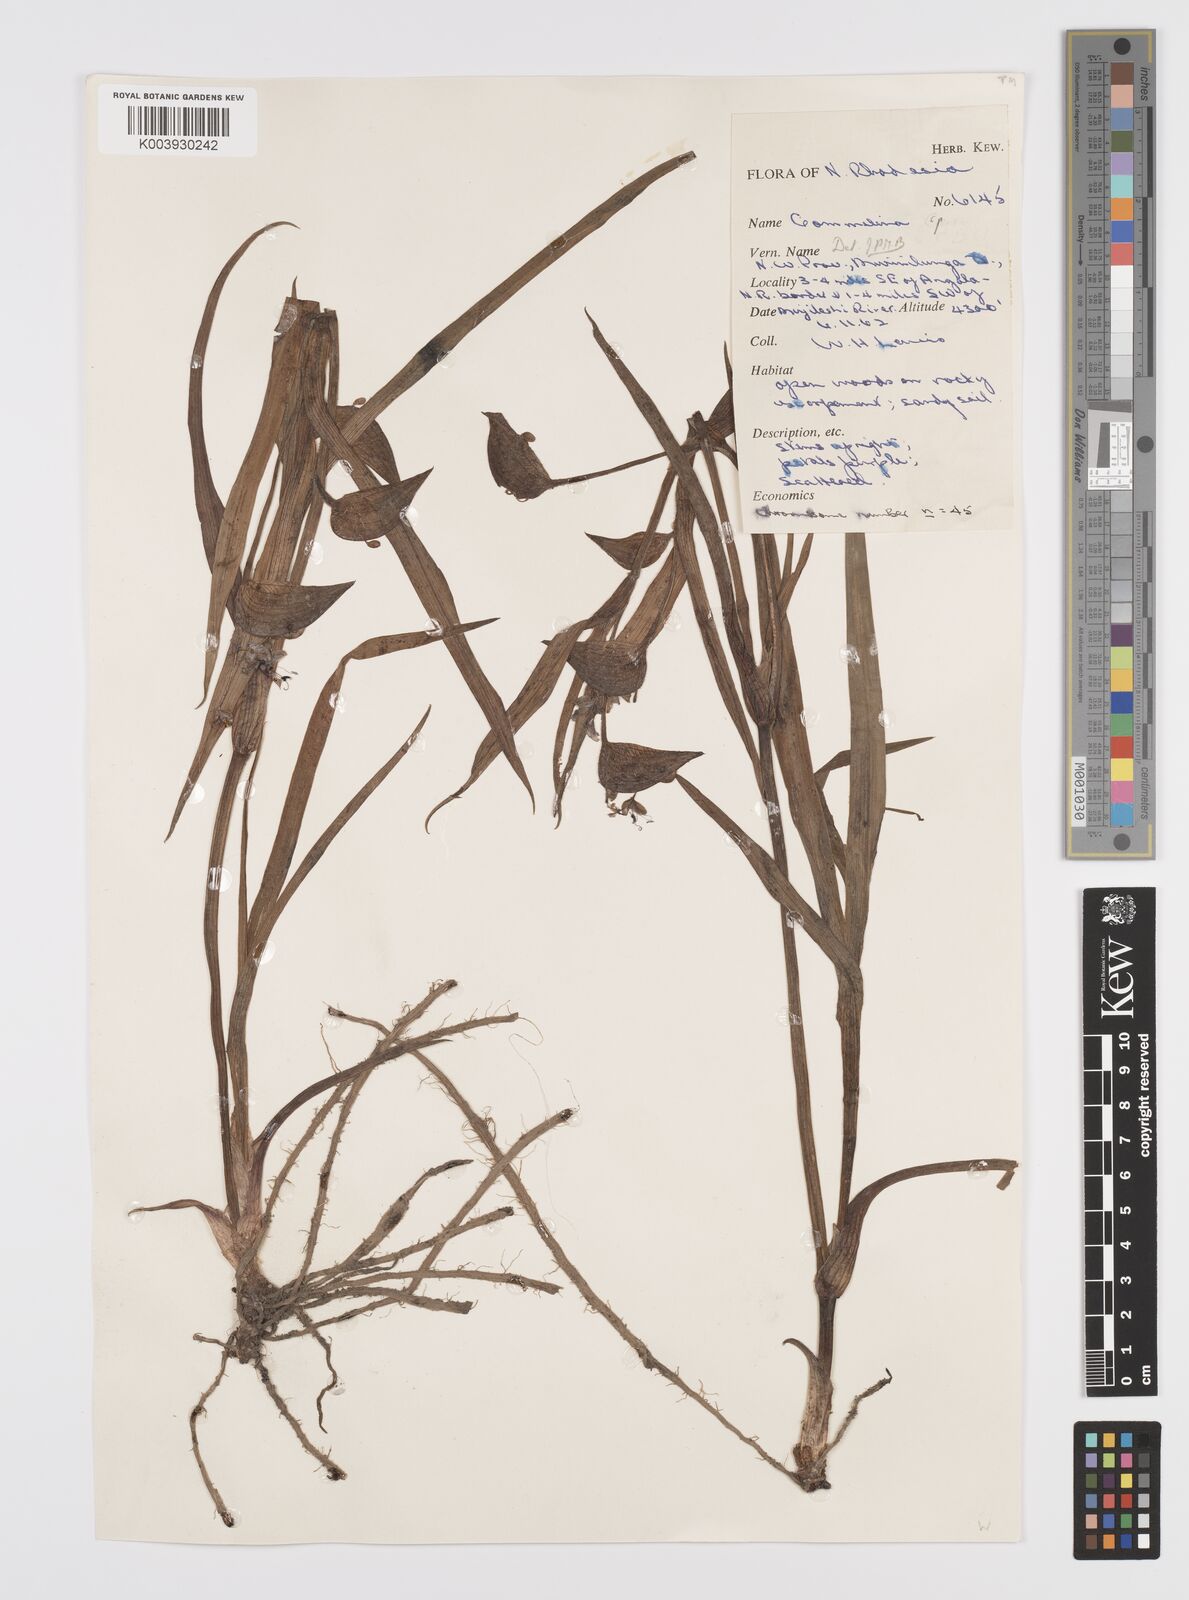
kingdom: Plantae
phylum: Tracheophyta
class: Liliopsida
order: Commelinales
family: Commelinaceae
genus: Commelina
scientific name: Commelina schweinfurthii
